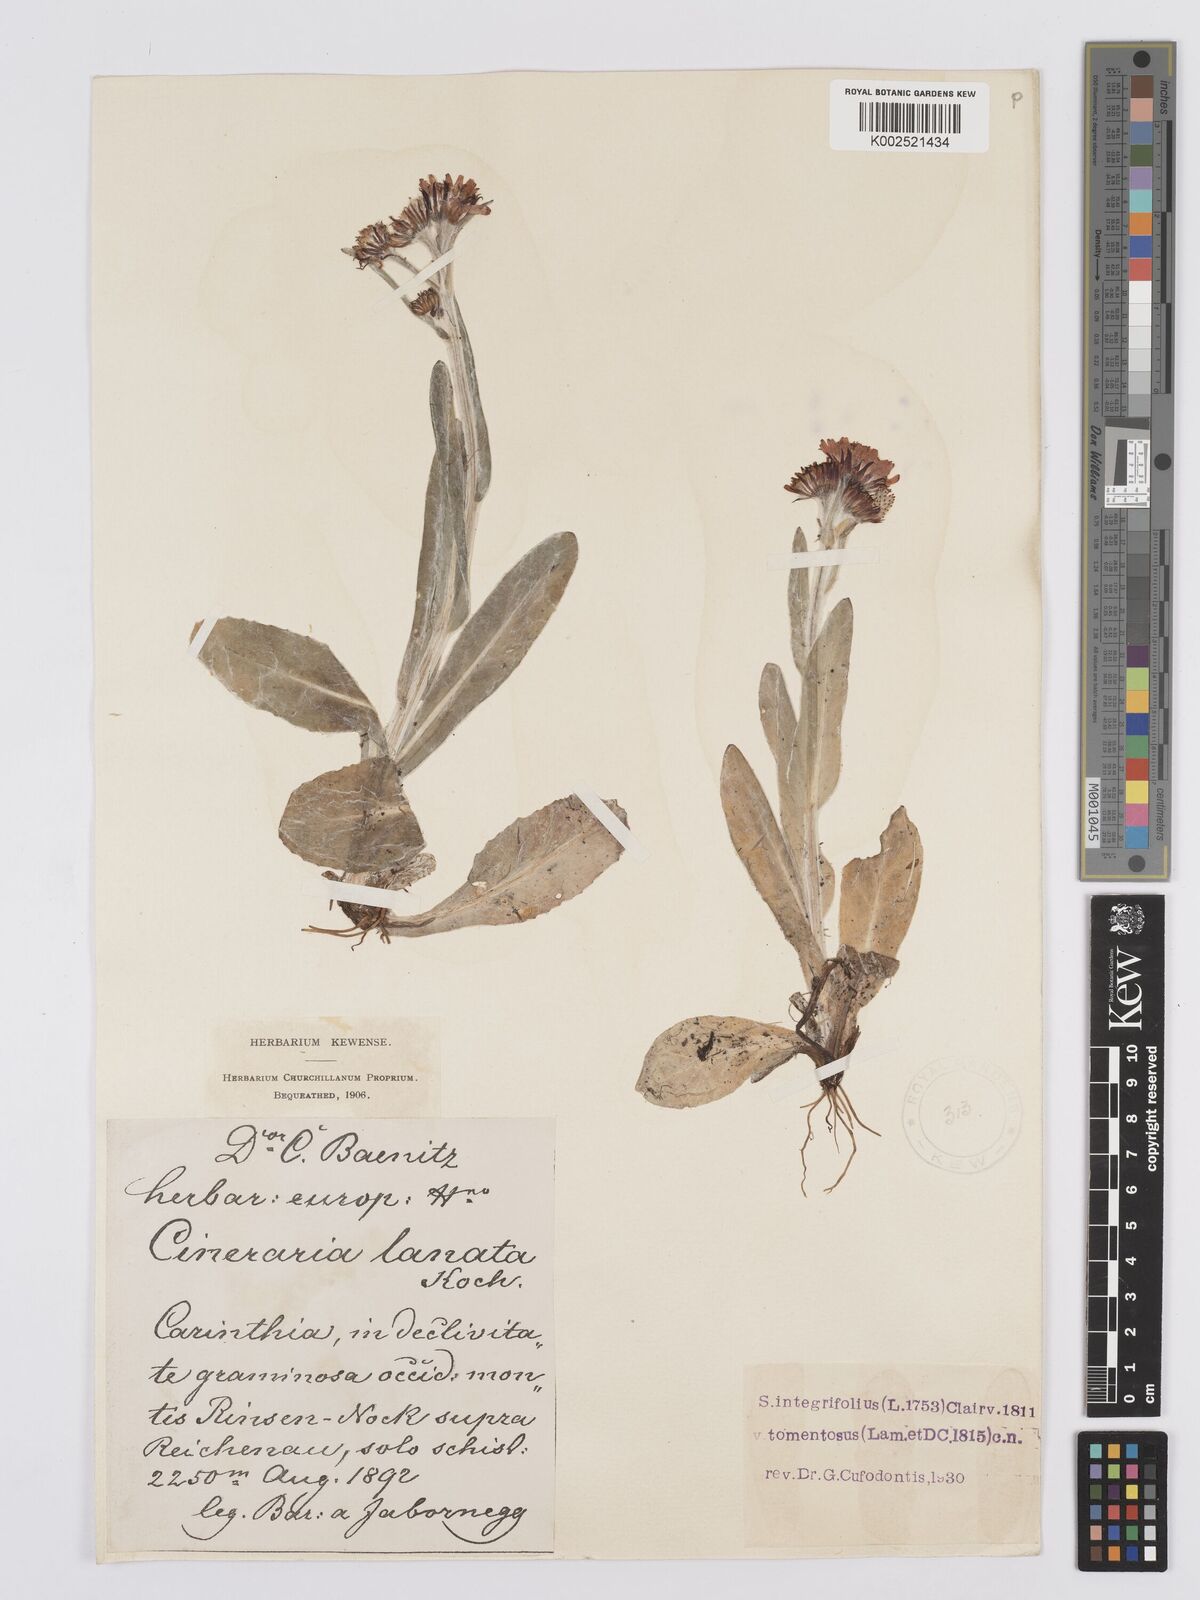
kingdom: Plantae
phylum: Tracheophyta
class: Magnoliopsida
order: Asterales
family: Asteraceae
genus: Tephroseris
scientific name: Tephroseris integrifolia
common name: Field fleawort
